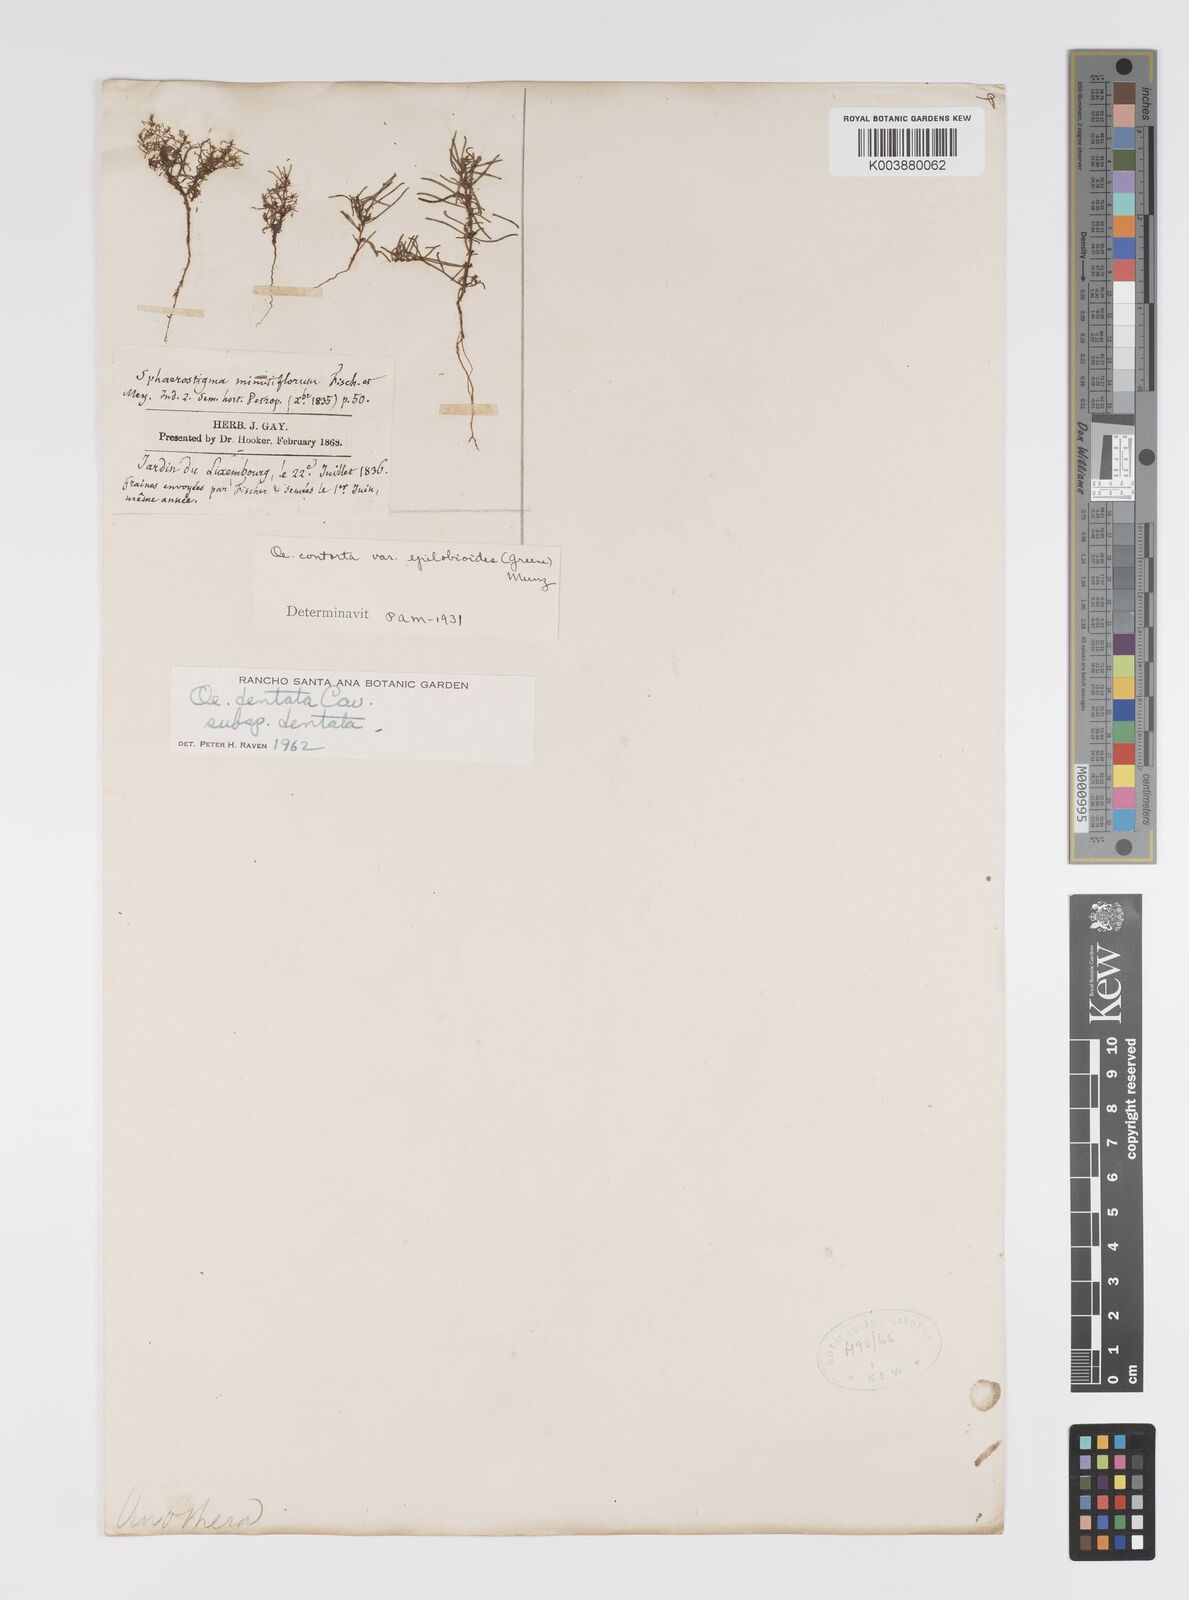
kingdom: Plantae
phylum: Tracheophyta
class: Magnoliopsida
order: Myrtales
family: Onagraceae
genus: Camissonia
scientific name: Camissonia dentata
